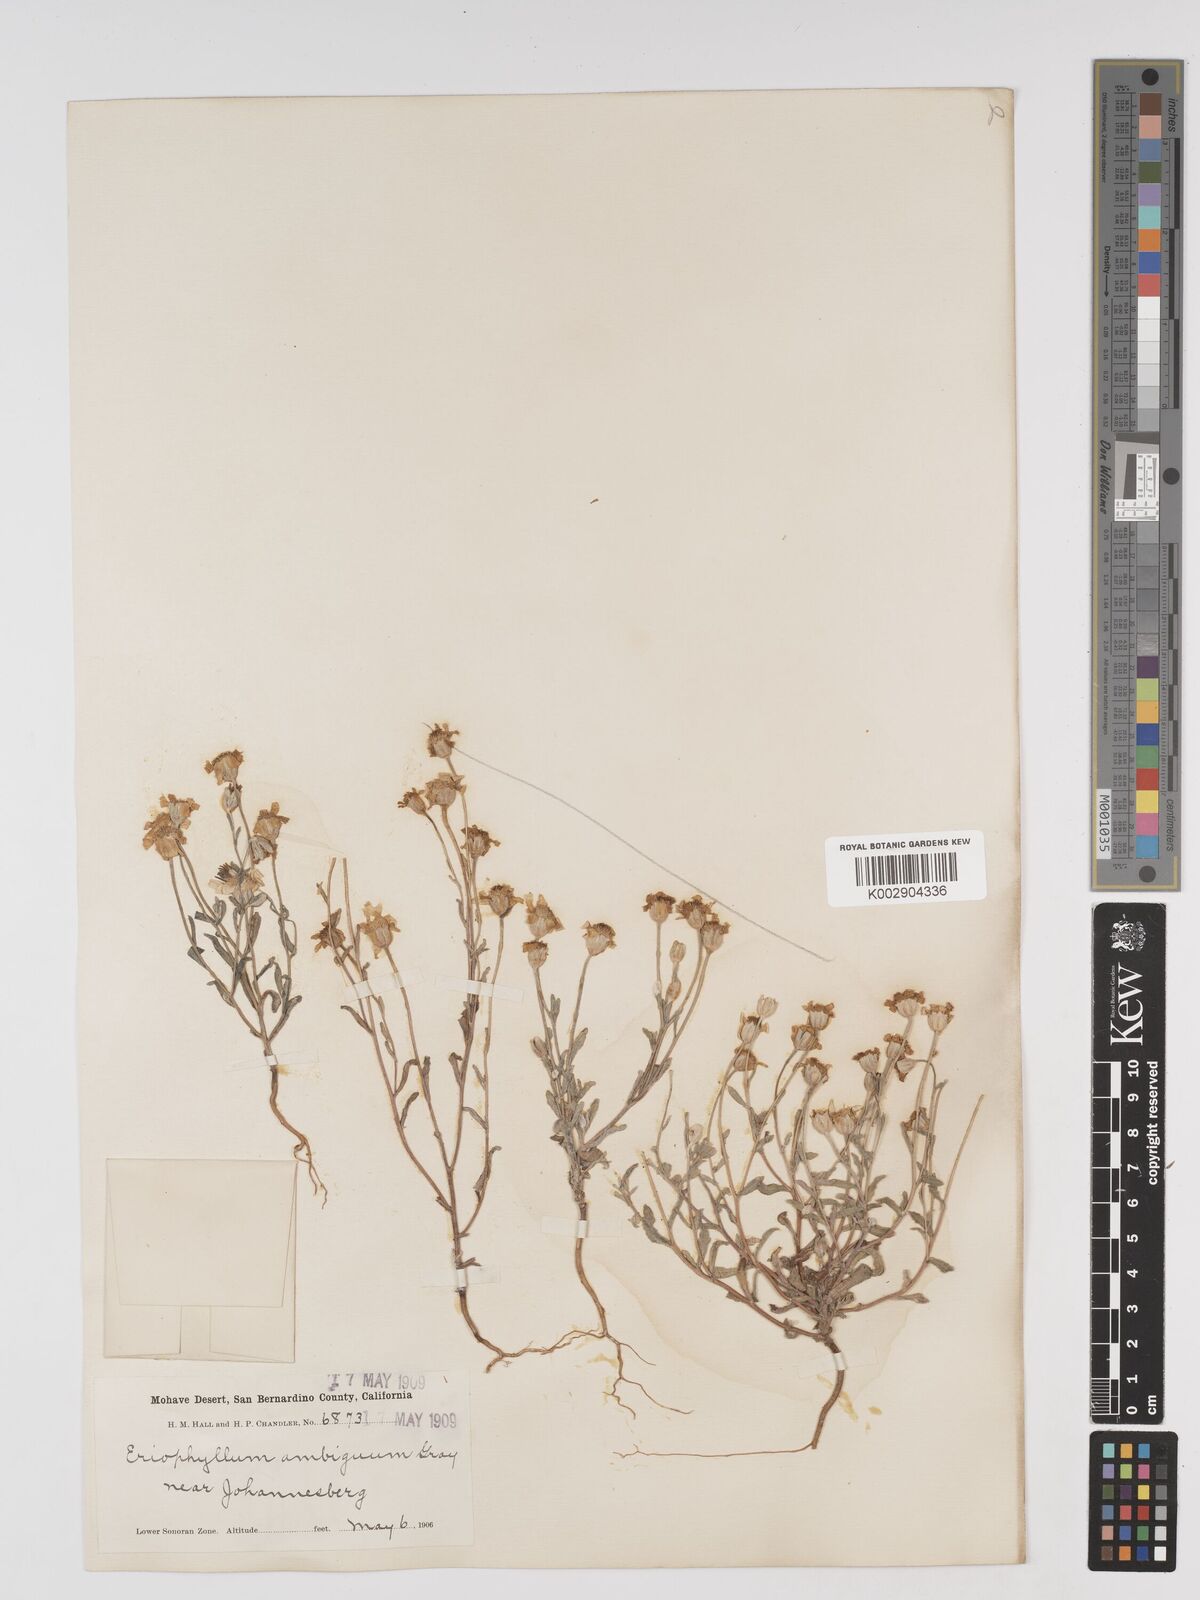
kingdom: Plantae
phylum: Tracheophyta
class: Magnoliopsida
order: Asterales
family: Asteraceae
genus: Eriophyllum
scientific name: Eriophyllum ambiguum
